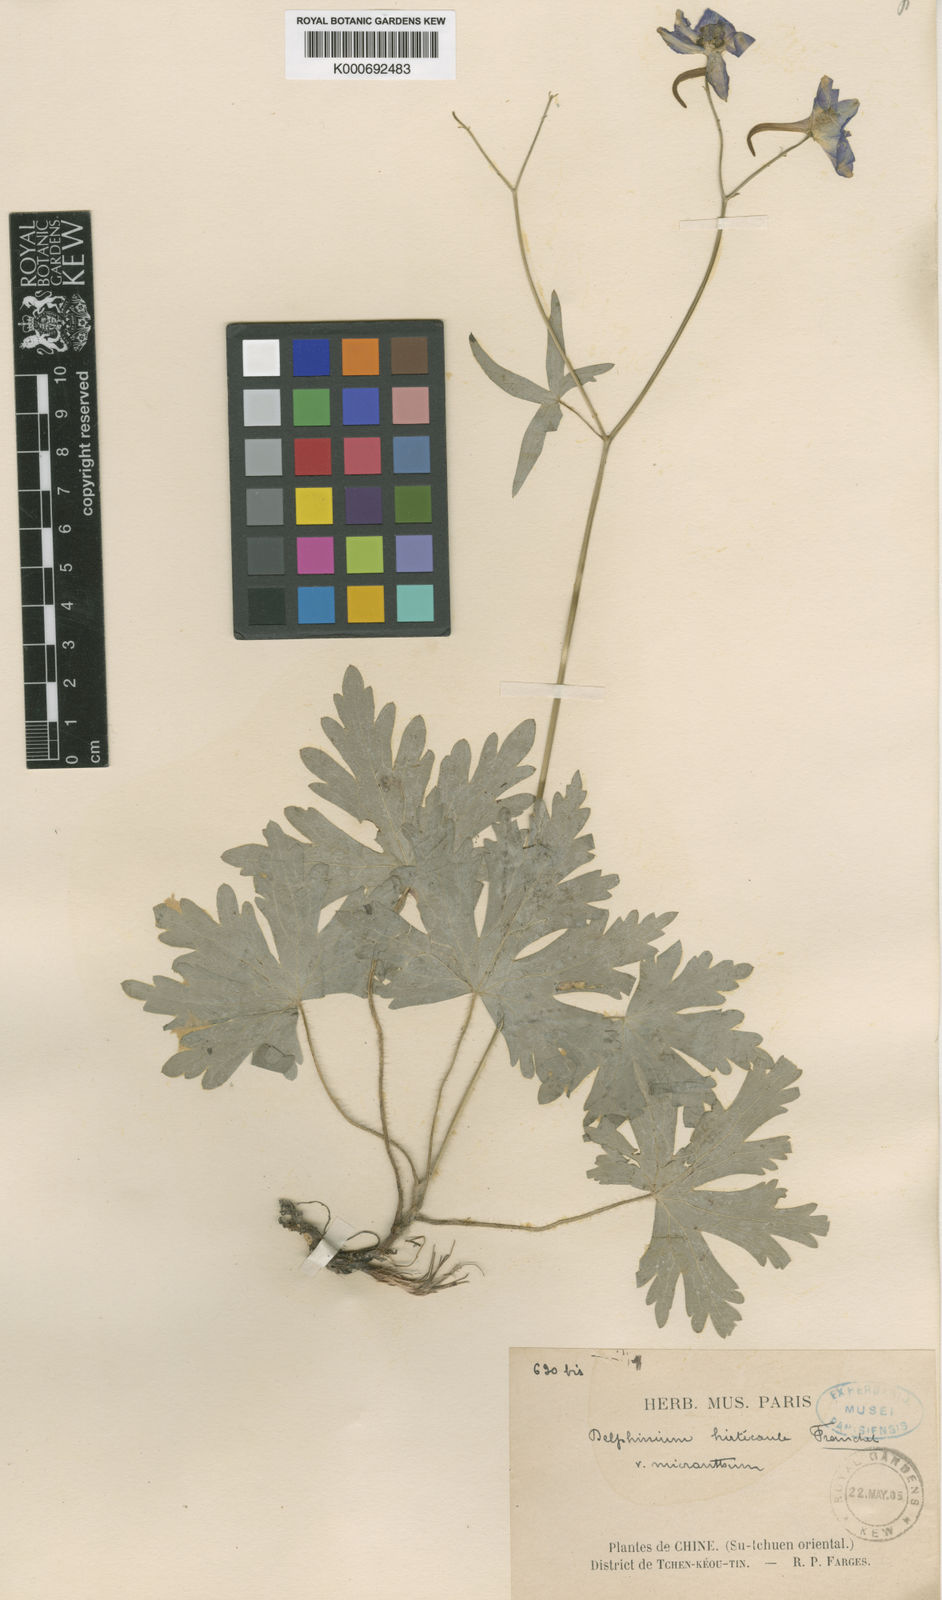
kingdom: Plantae
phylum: Tracheophyta
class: Magnoliopsida
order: Ranunculales
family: Ranunculaceae
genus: Delphinium
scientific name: Delphinium hirticaule
